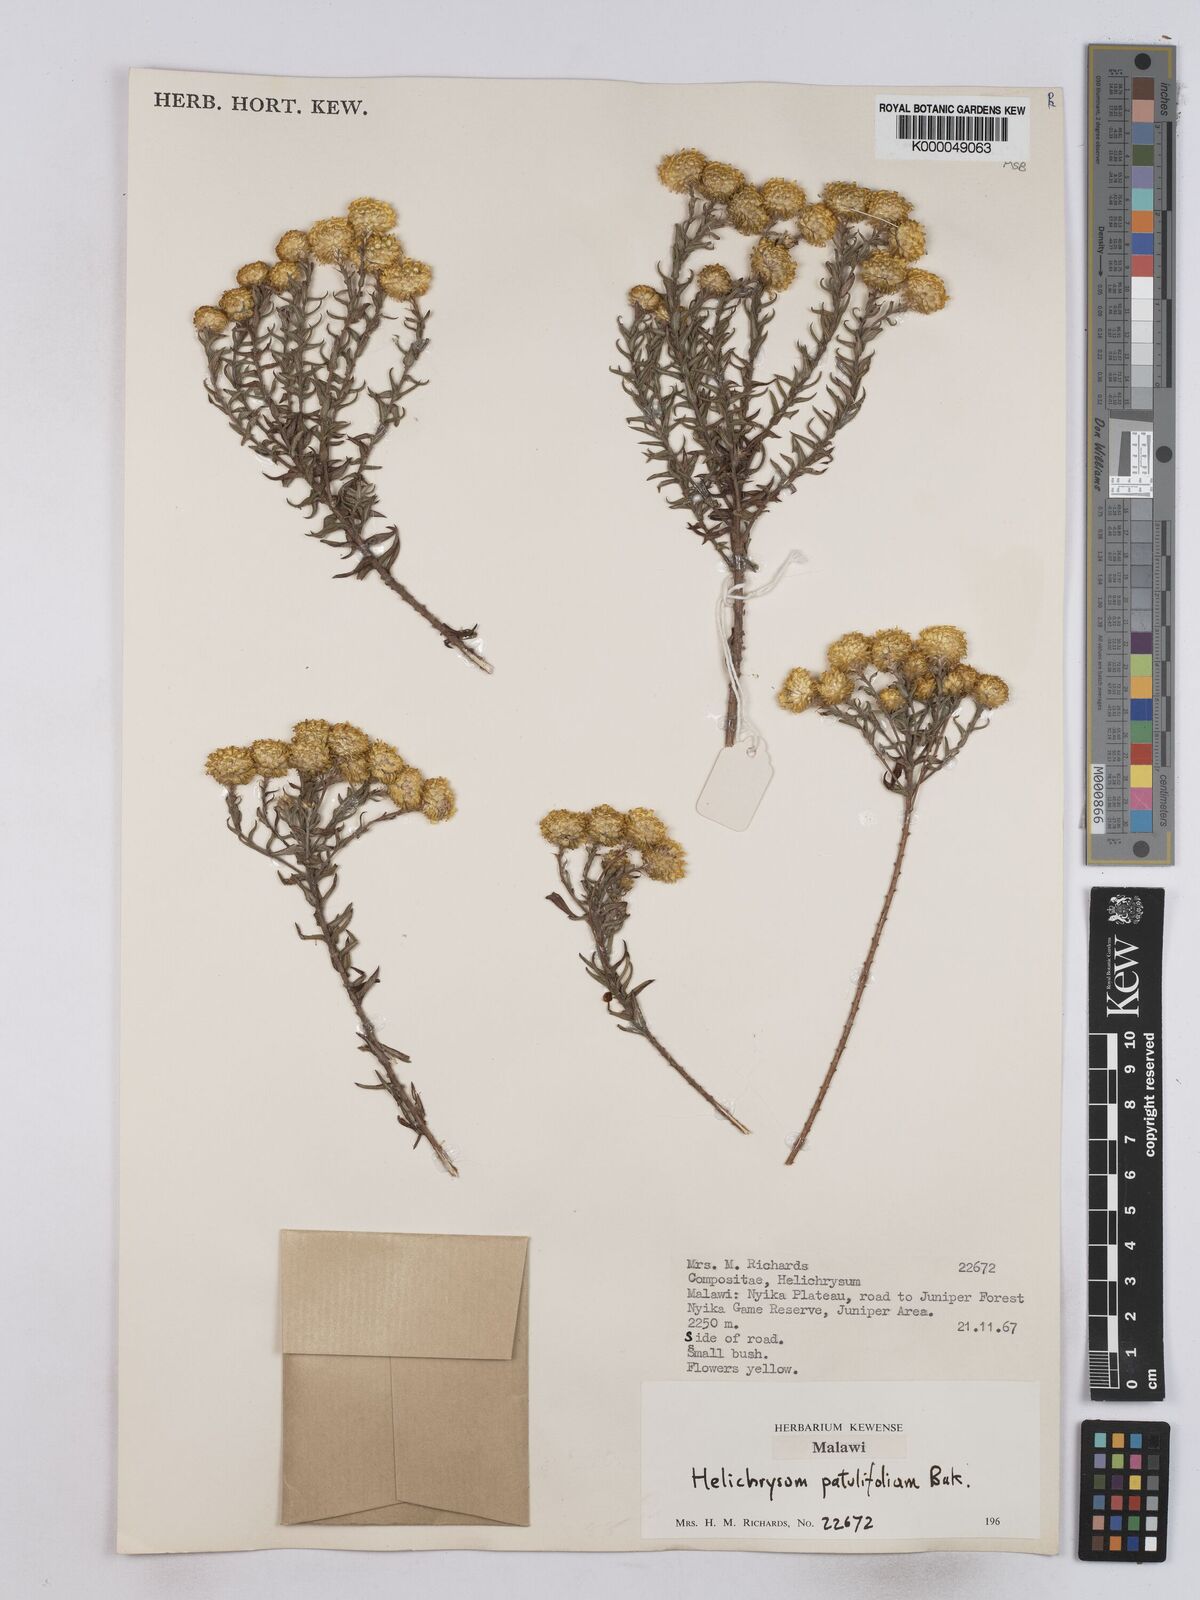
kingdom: Plantae
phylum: Tracheophyta
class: Magnoliopsida
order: Asterales
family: Asteraceae
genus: Helichrysum
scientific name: Helichrysum patulifolium
